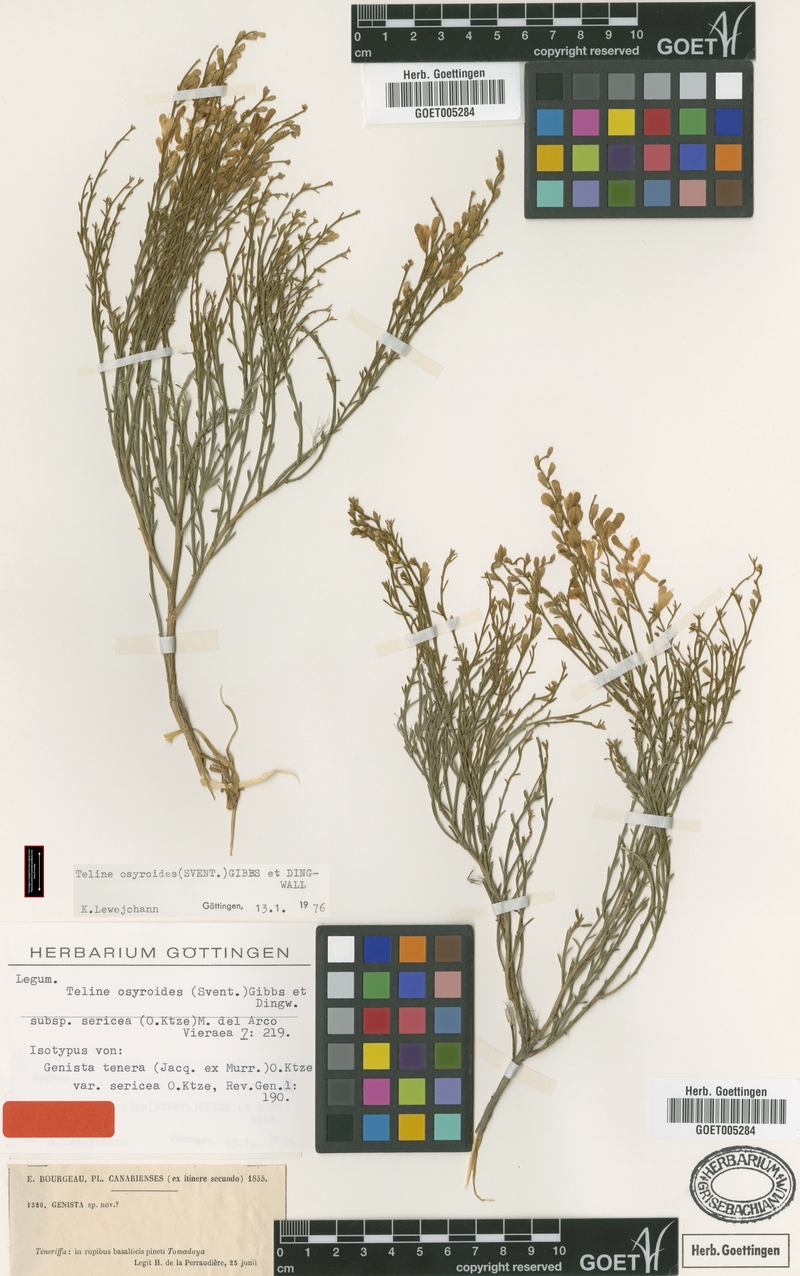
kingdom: Plantae
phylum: Tracheophyta
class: Magnoliopsida
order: Fabales
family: Fabaceae
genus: Genista
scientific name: Genista tenera
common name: Madeira broom
